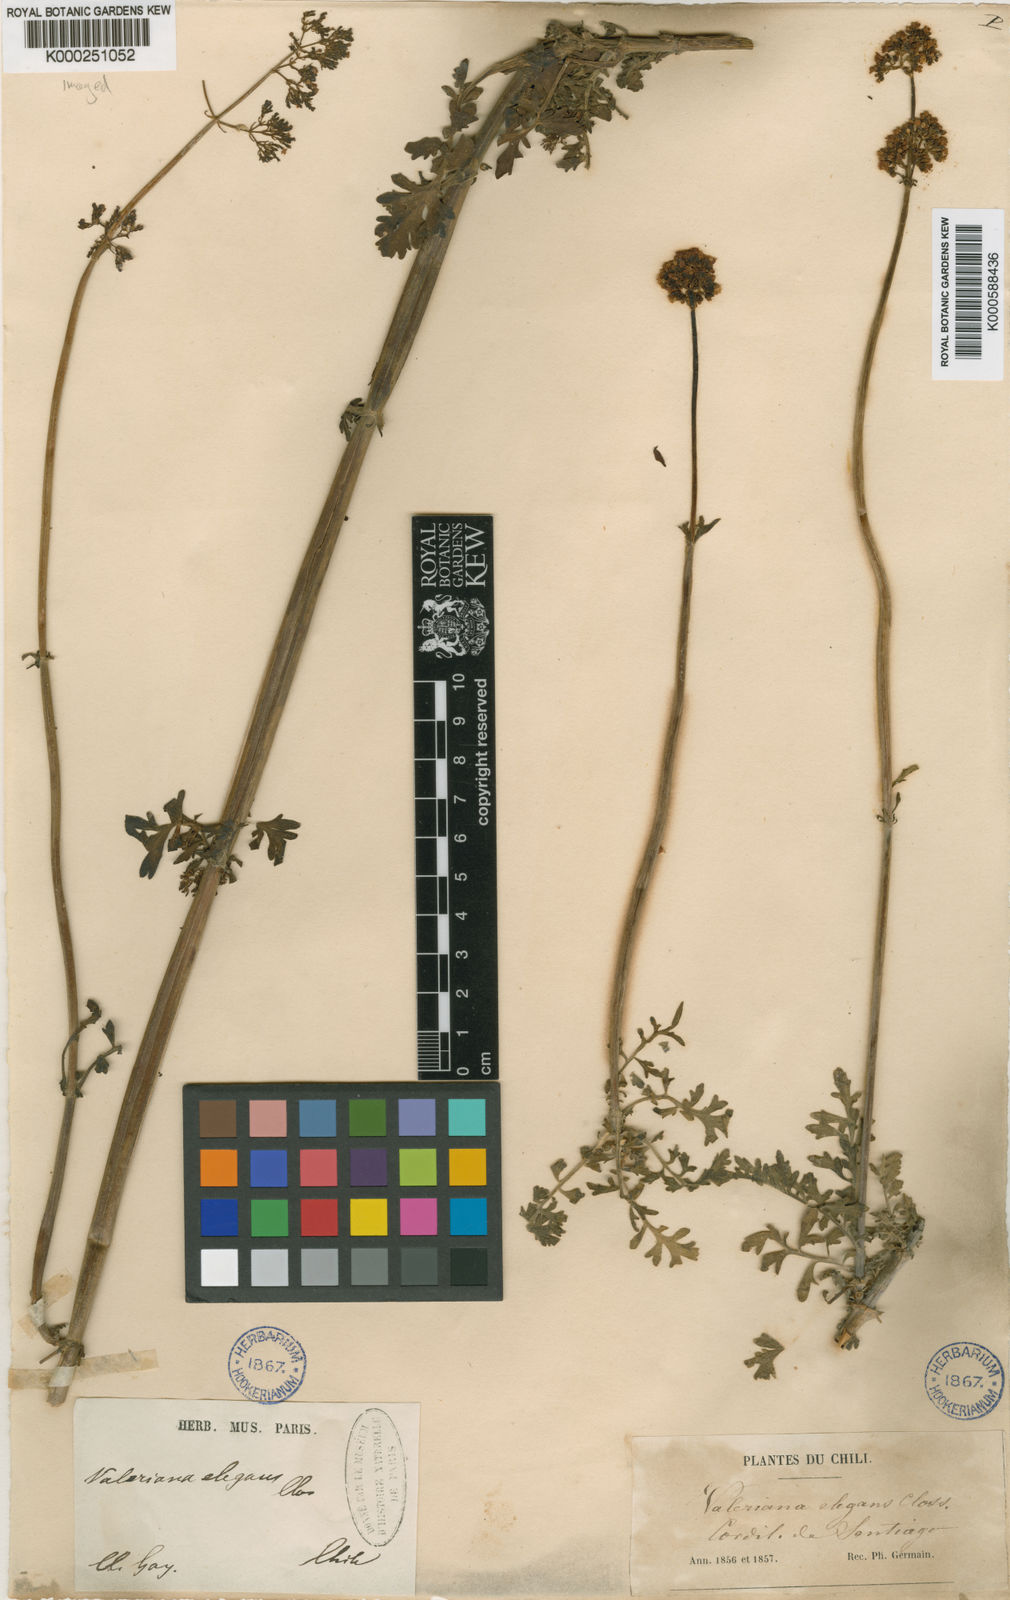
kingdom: Plantae
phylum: Tracheophyta
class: Magnoliopsida
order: Dipsacales
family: Caprifoliaceae
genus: Valeriana
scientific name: Valeriana stricta
